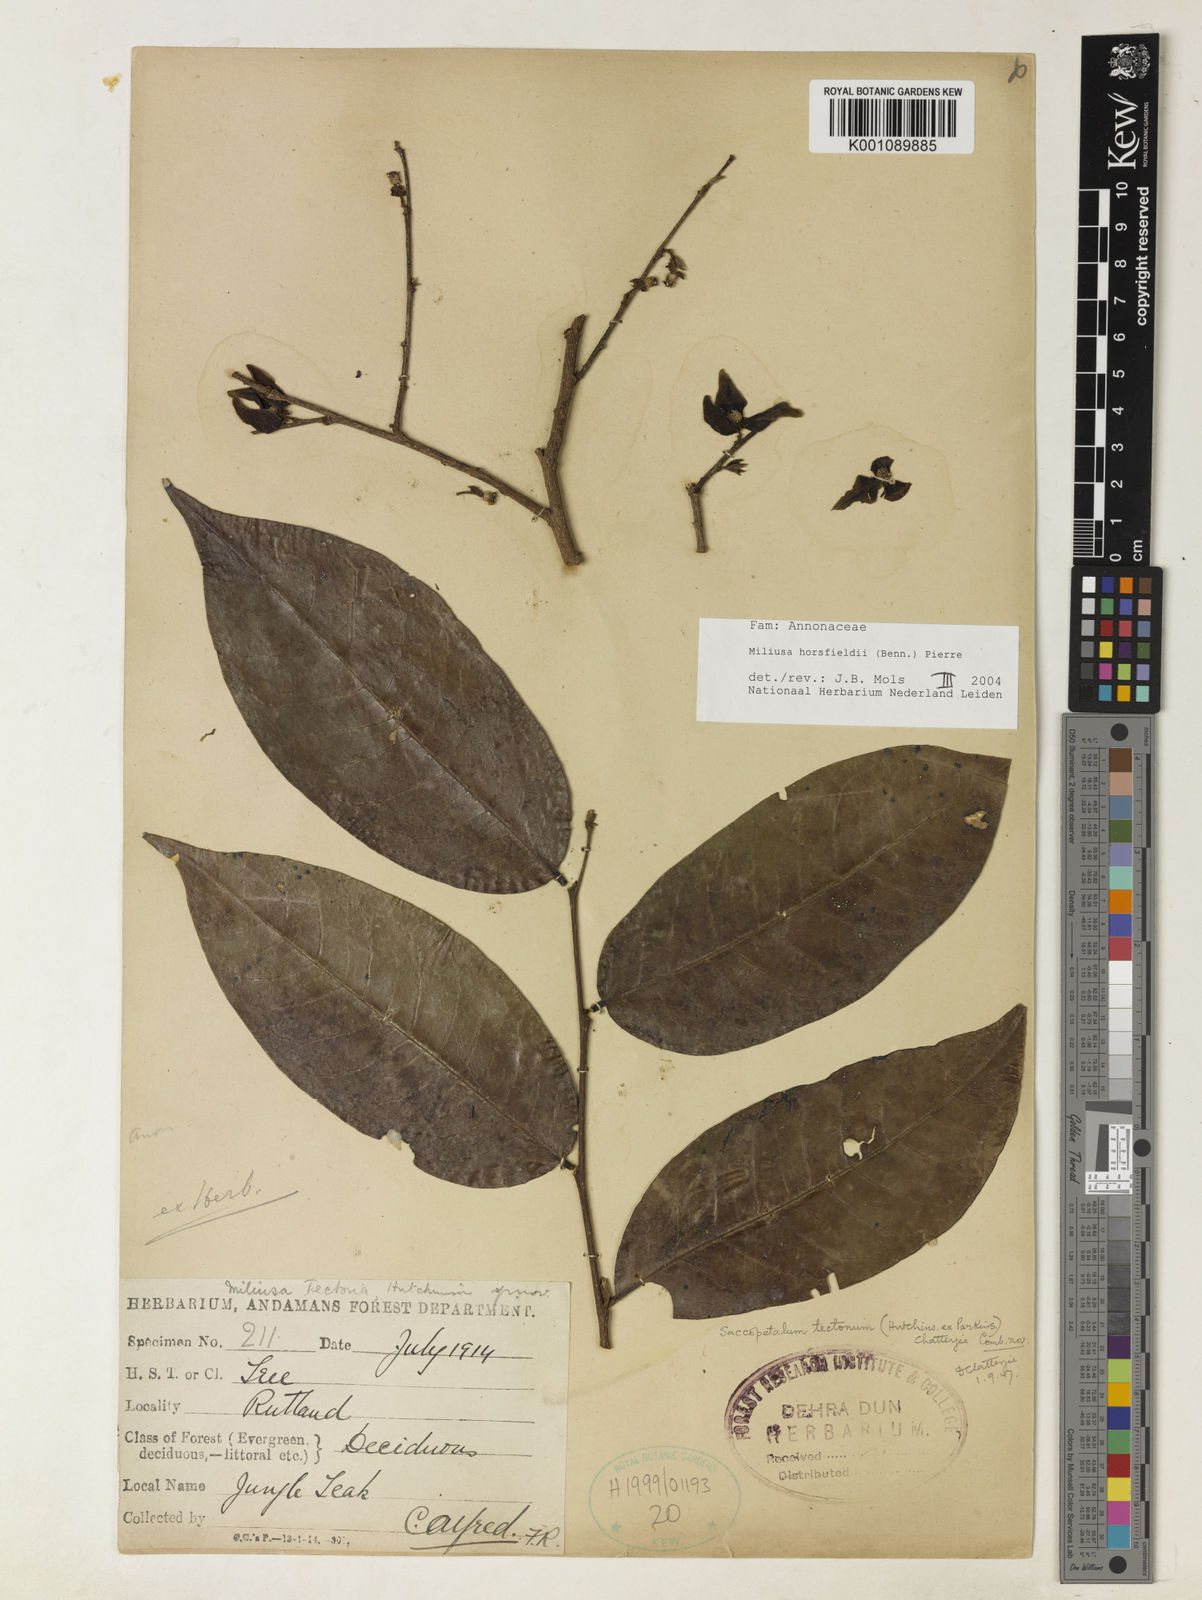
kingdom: Plantae
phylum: Tracheophyta
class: Magnoliopsida
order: Magnoliales
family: Annonaceae
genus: Miliusa
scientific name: Miliusa horsfieldii
